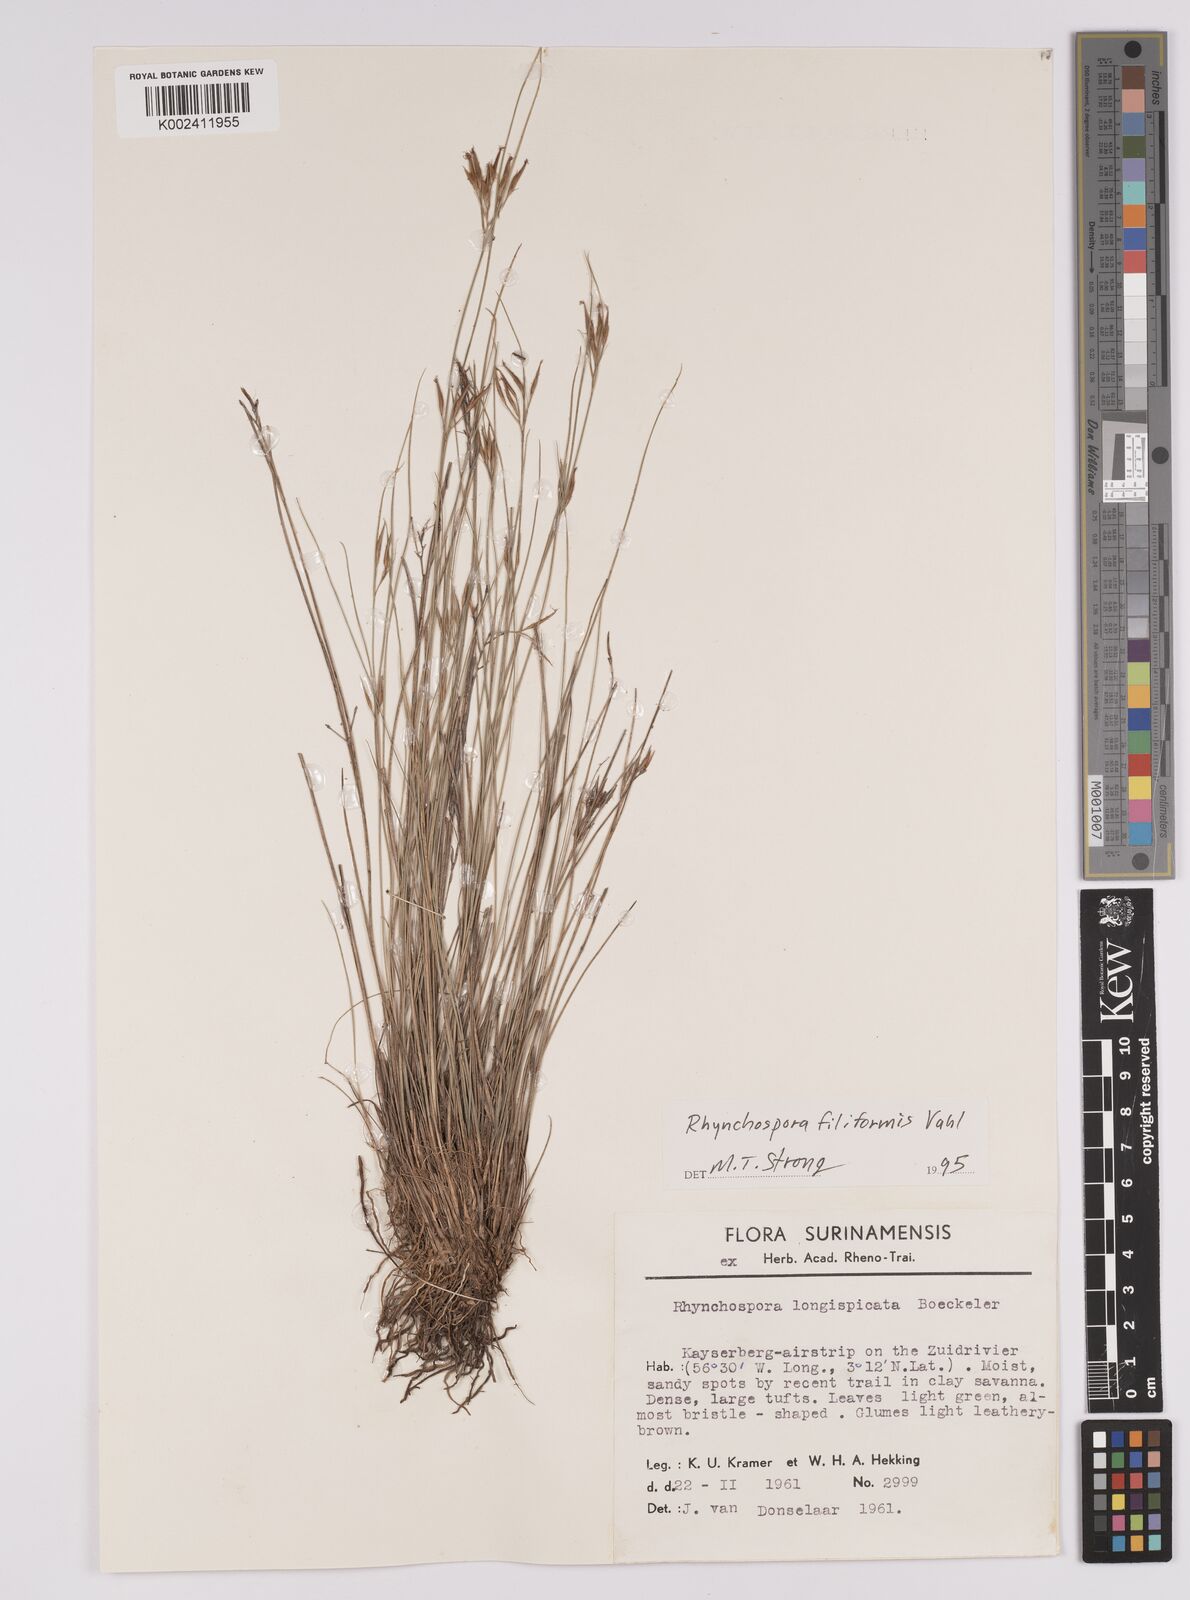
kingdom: Plantae
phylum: Tracheophyta
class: Liliopsida
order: Poales
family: Cyperaceae
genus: Rhynchospora
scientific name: Rhynchospora filiformis
